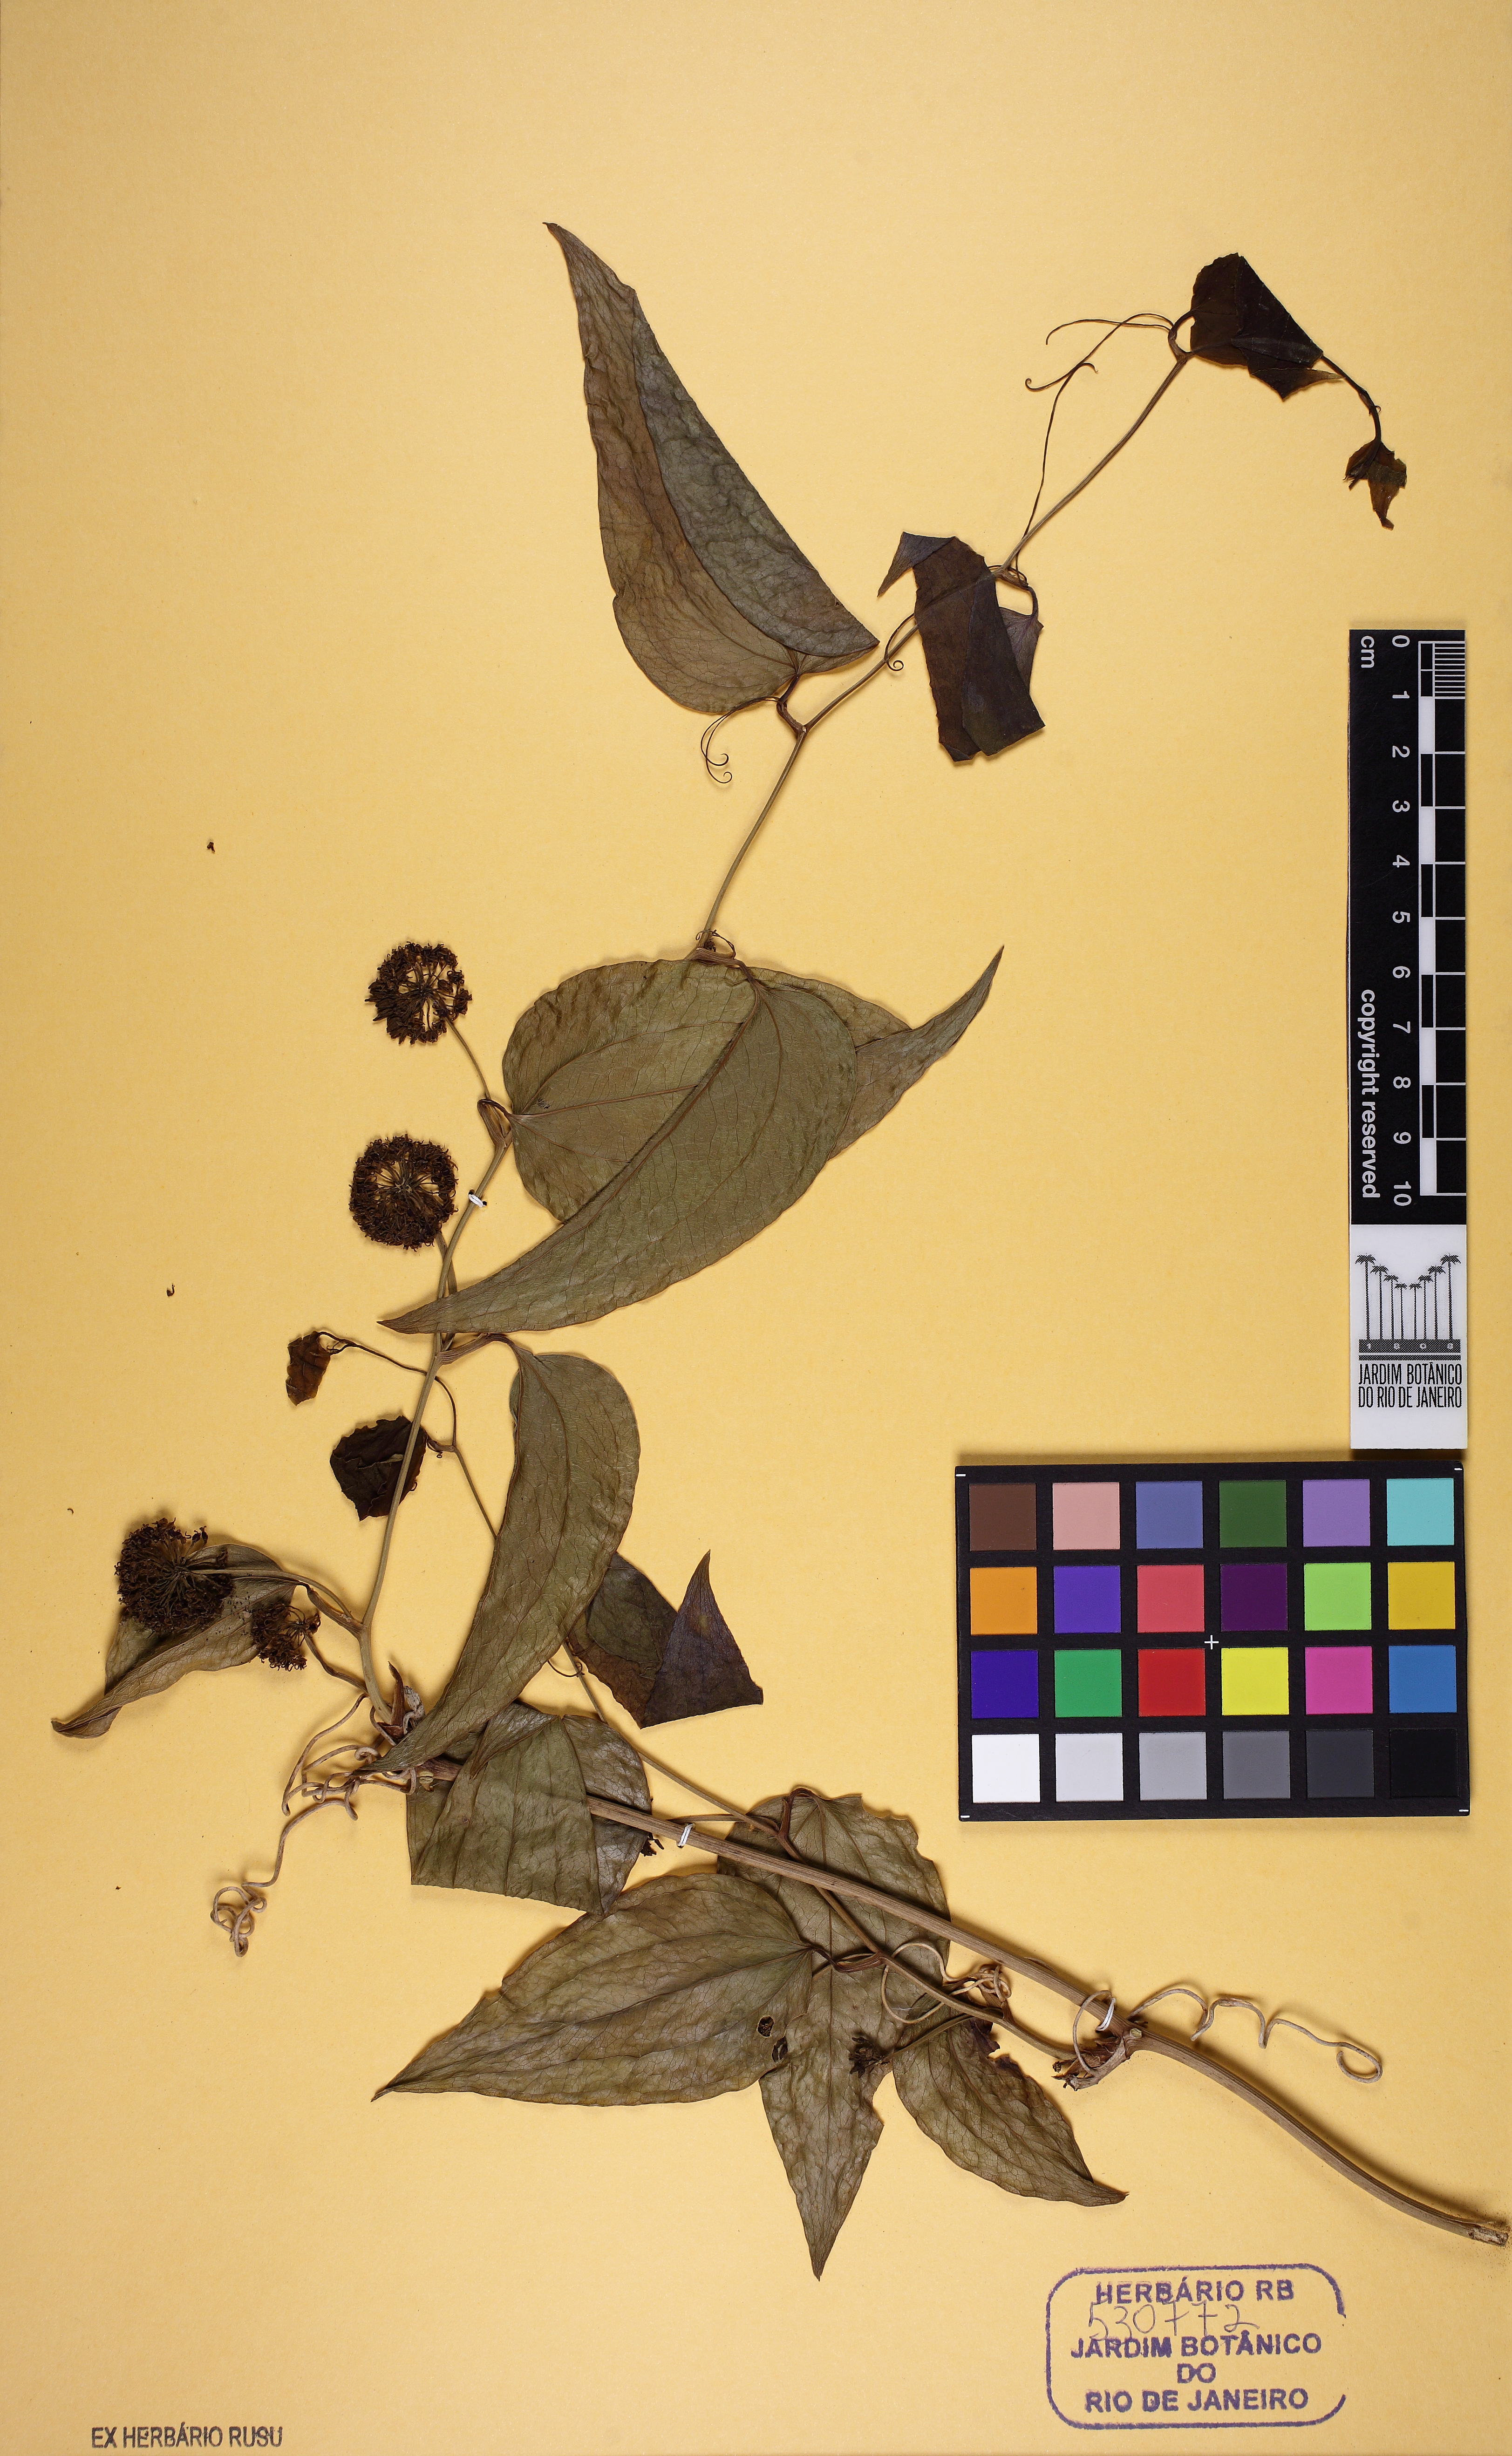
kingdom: Plantae
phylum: Tracheophyta
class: Liliopsida
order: Liliales
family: Smilacaceae
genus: Smilax
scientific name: Smilax fluminensis
